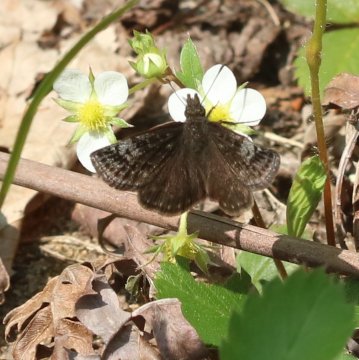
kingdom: Animalia
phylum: Arthropoda
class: Insecta
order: Lepidoptera
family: Hesperiidae
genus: Erynnis
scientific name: Erynnis icelus
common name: Dreamy Duskywing
